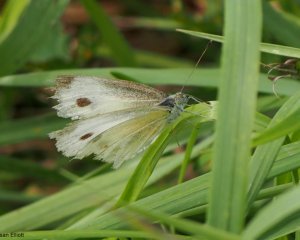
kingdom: Animalia
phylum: Arthropoda
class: Insecta
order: Lepidoptera
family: Pieridae
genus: Pieris
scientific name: Pieris rapae
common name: Cabbage White
